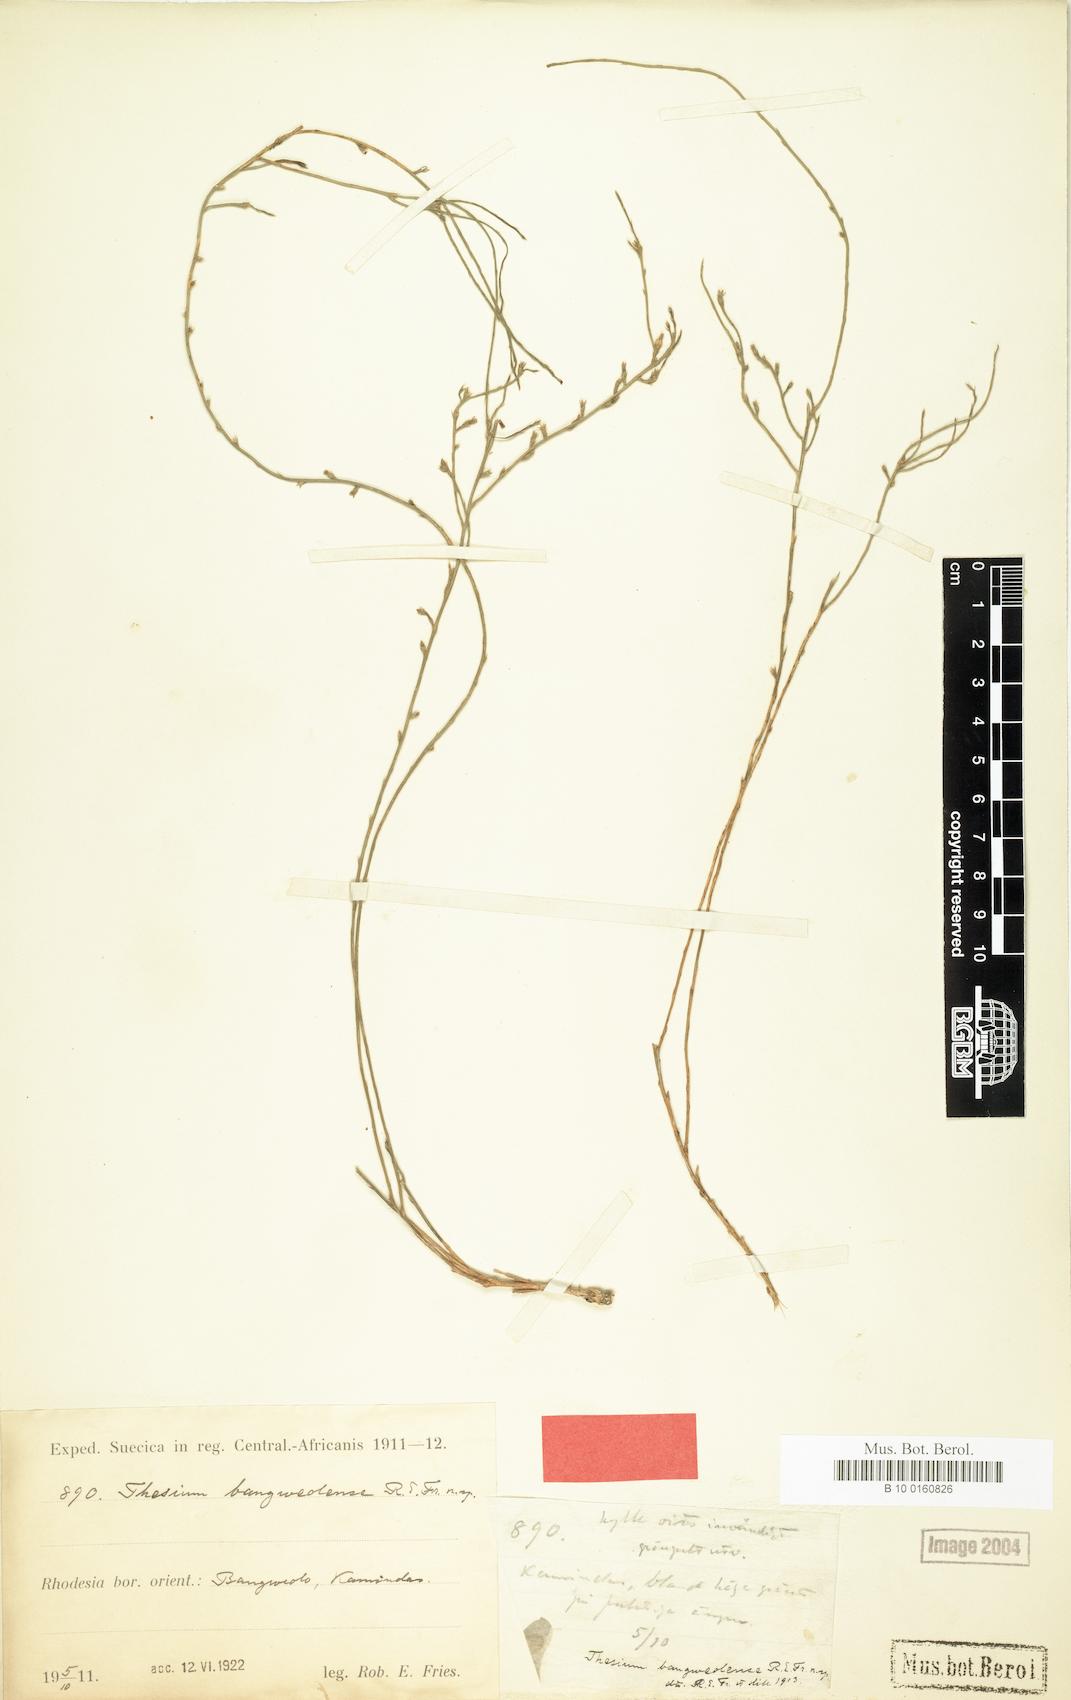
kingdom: Plantae
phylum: Tracheophyta
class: Magnoliopsida
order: Santalales
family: Thesiaceae
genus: Thesium
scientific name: Thesium bangweolense
